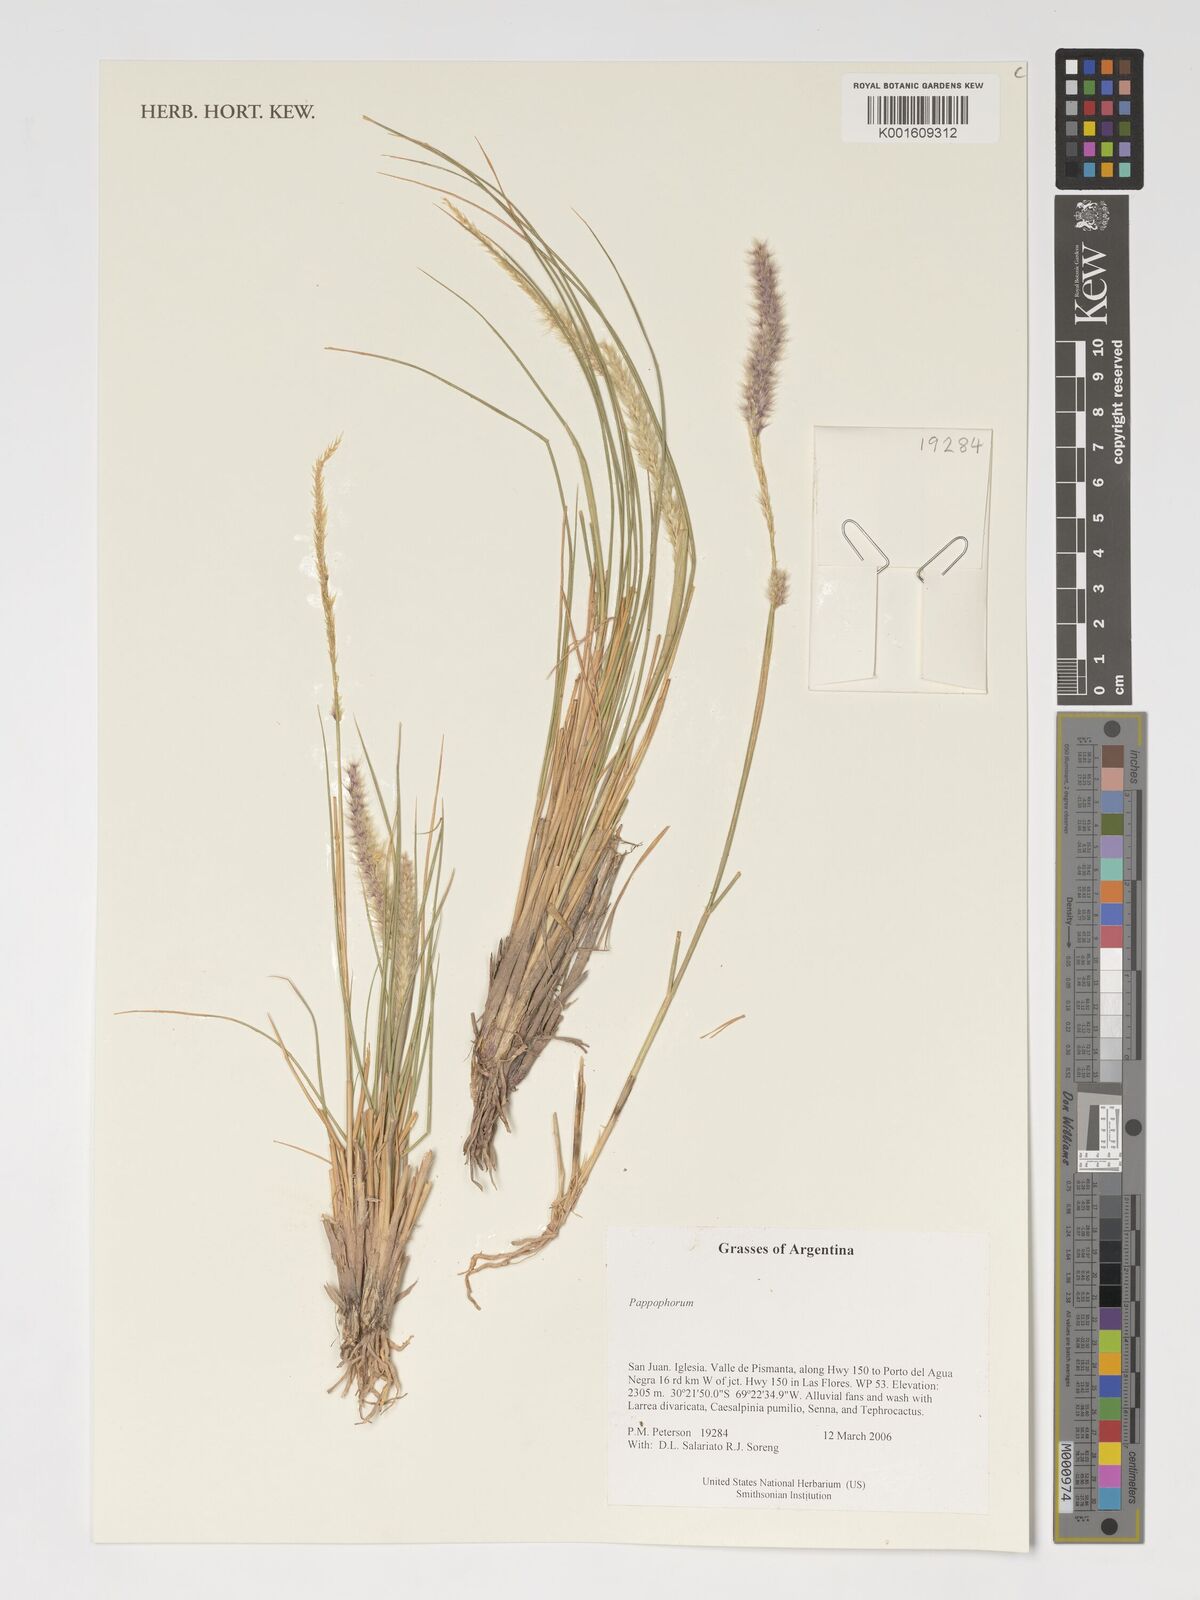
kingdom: Plantae
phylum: Tracheophyta
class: Liliopsida
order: Poales
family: Poaceae
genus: Pappophorum
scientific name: Pappophorum
